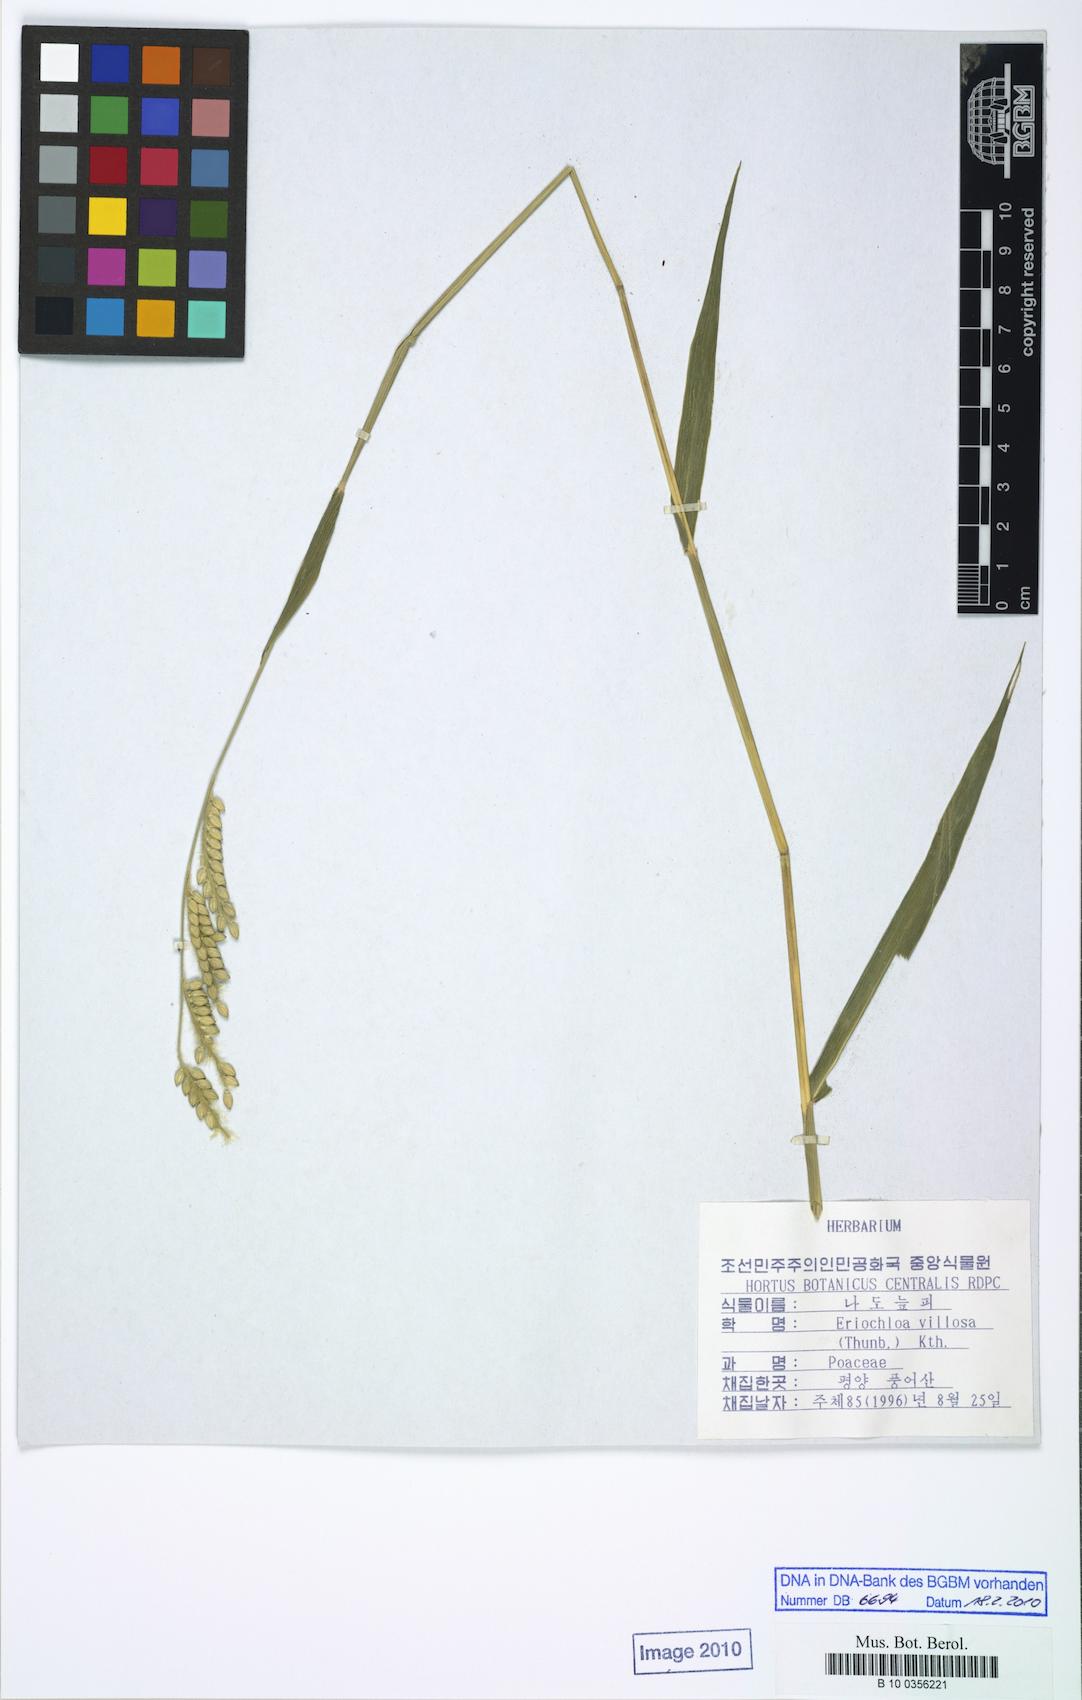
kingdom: Plantae
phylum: Tracheophyta
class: Liliopsida
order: Poales
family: Poaceae
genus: Eriochloa
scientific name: Eriochloa villosa
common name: Hairy cupgrass
